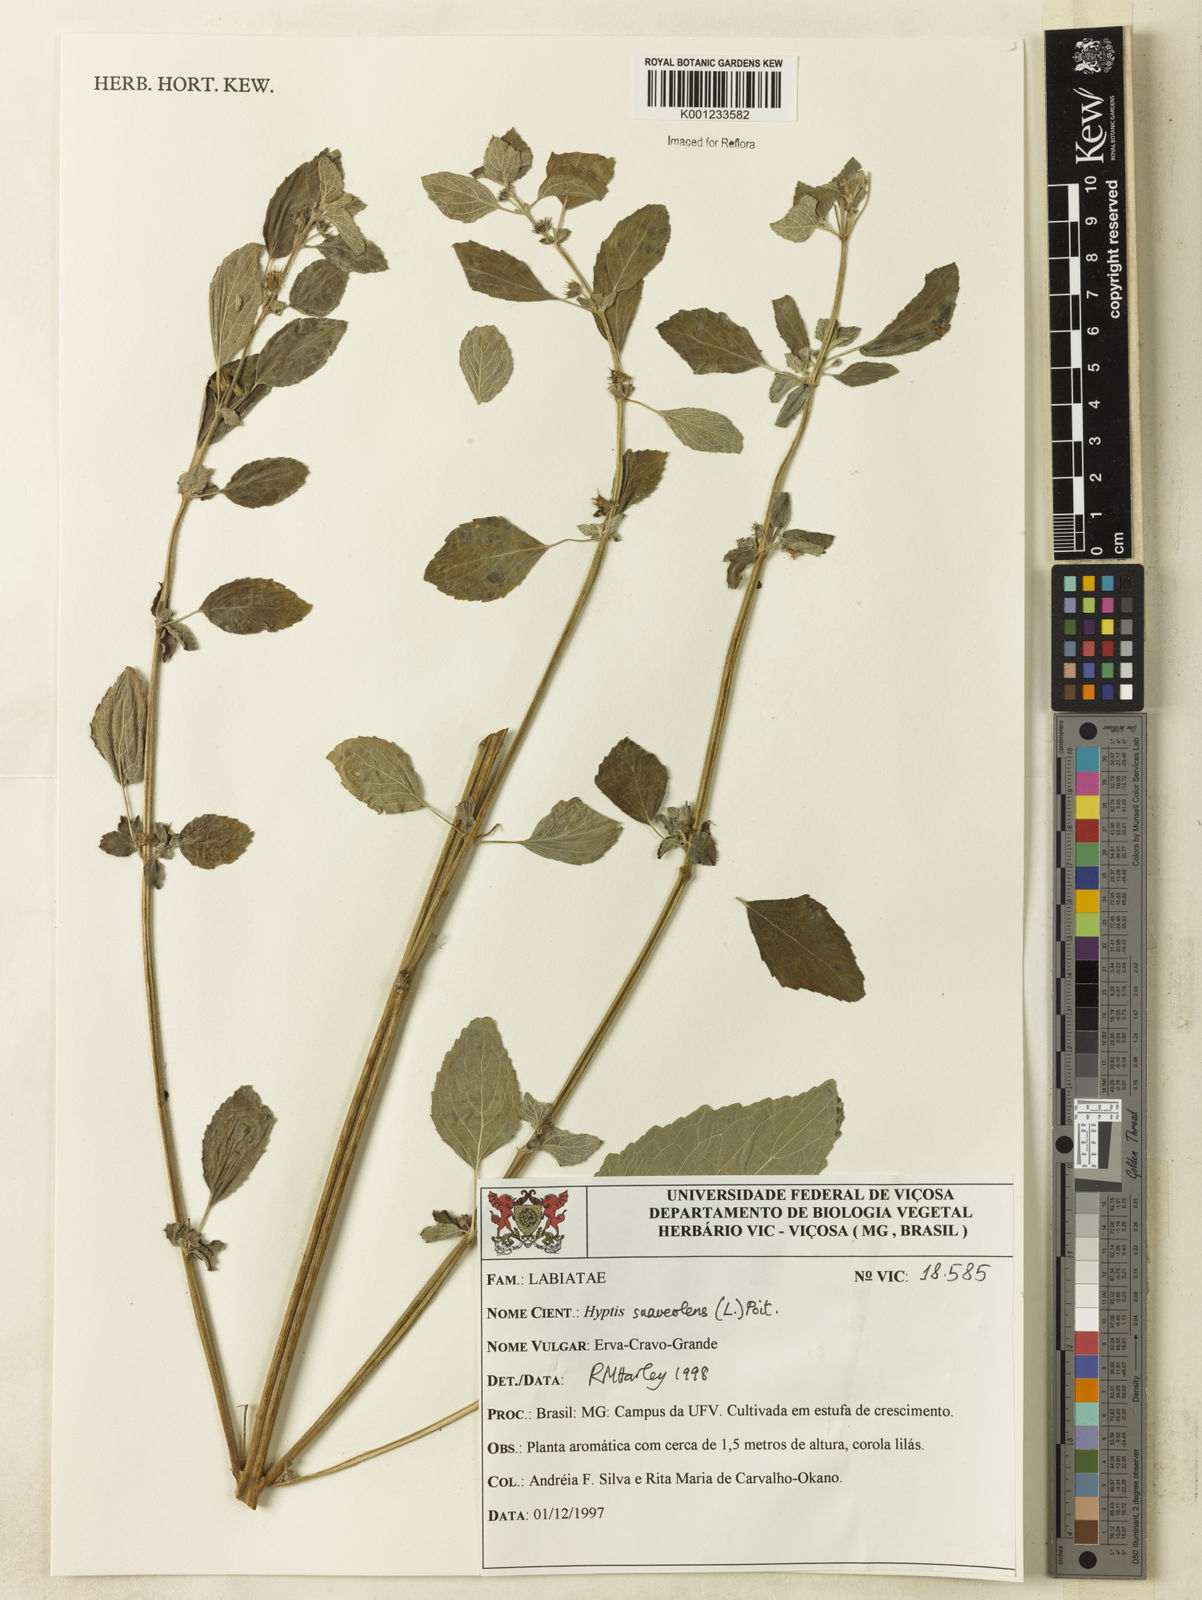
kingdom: Plantae
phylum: Tracheophyta
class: Magnoliopsida
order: Lamiales
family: Lamiaceae
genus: Mesosphaerum
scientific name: Mesosphaerum suaveolens
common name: Pignut
